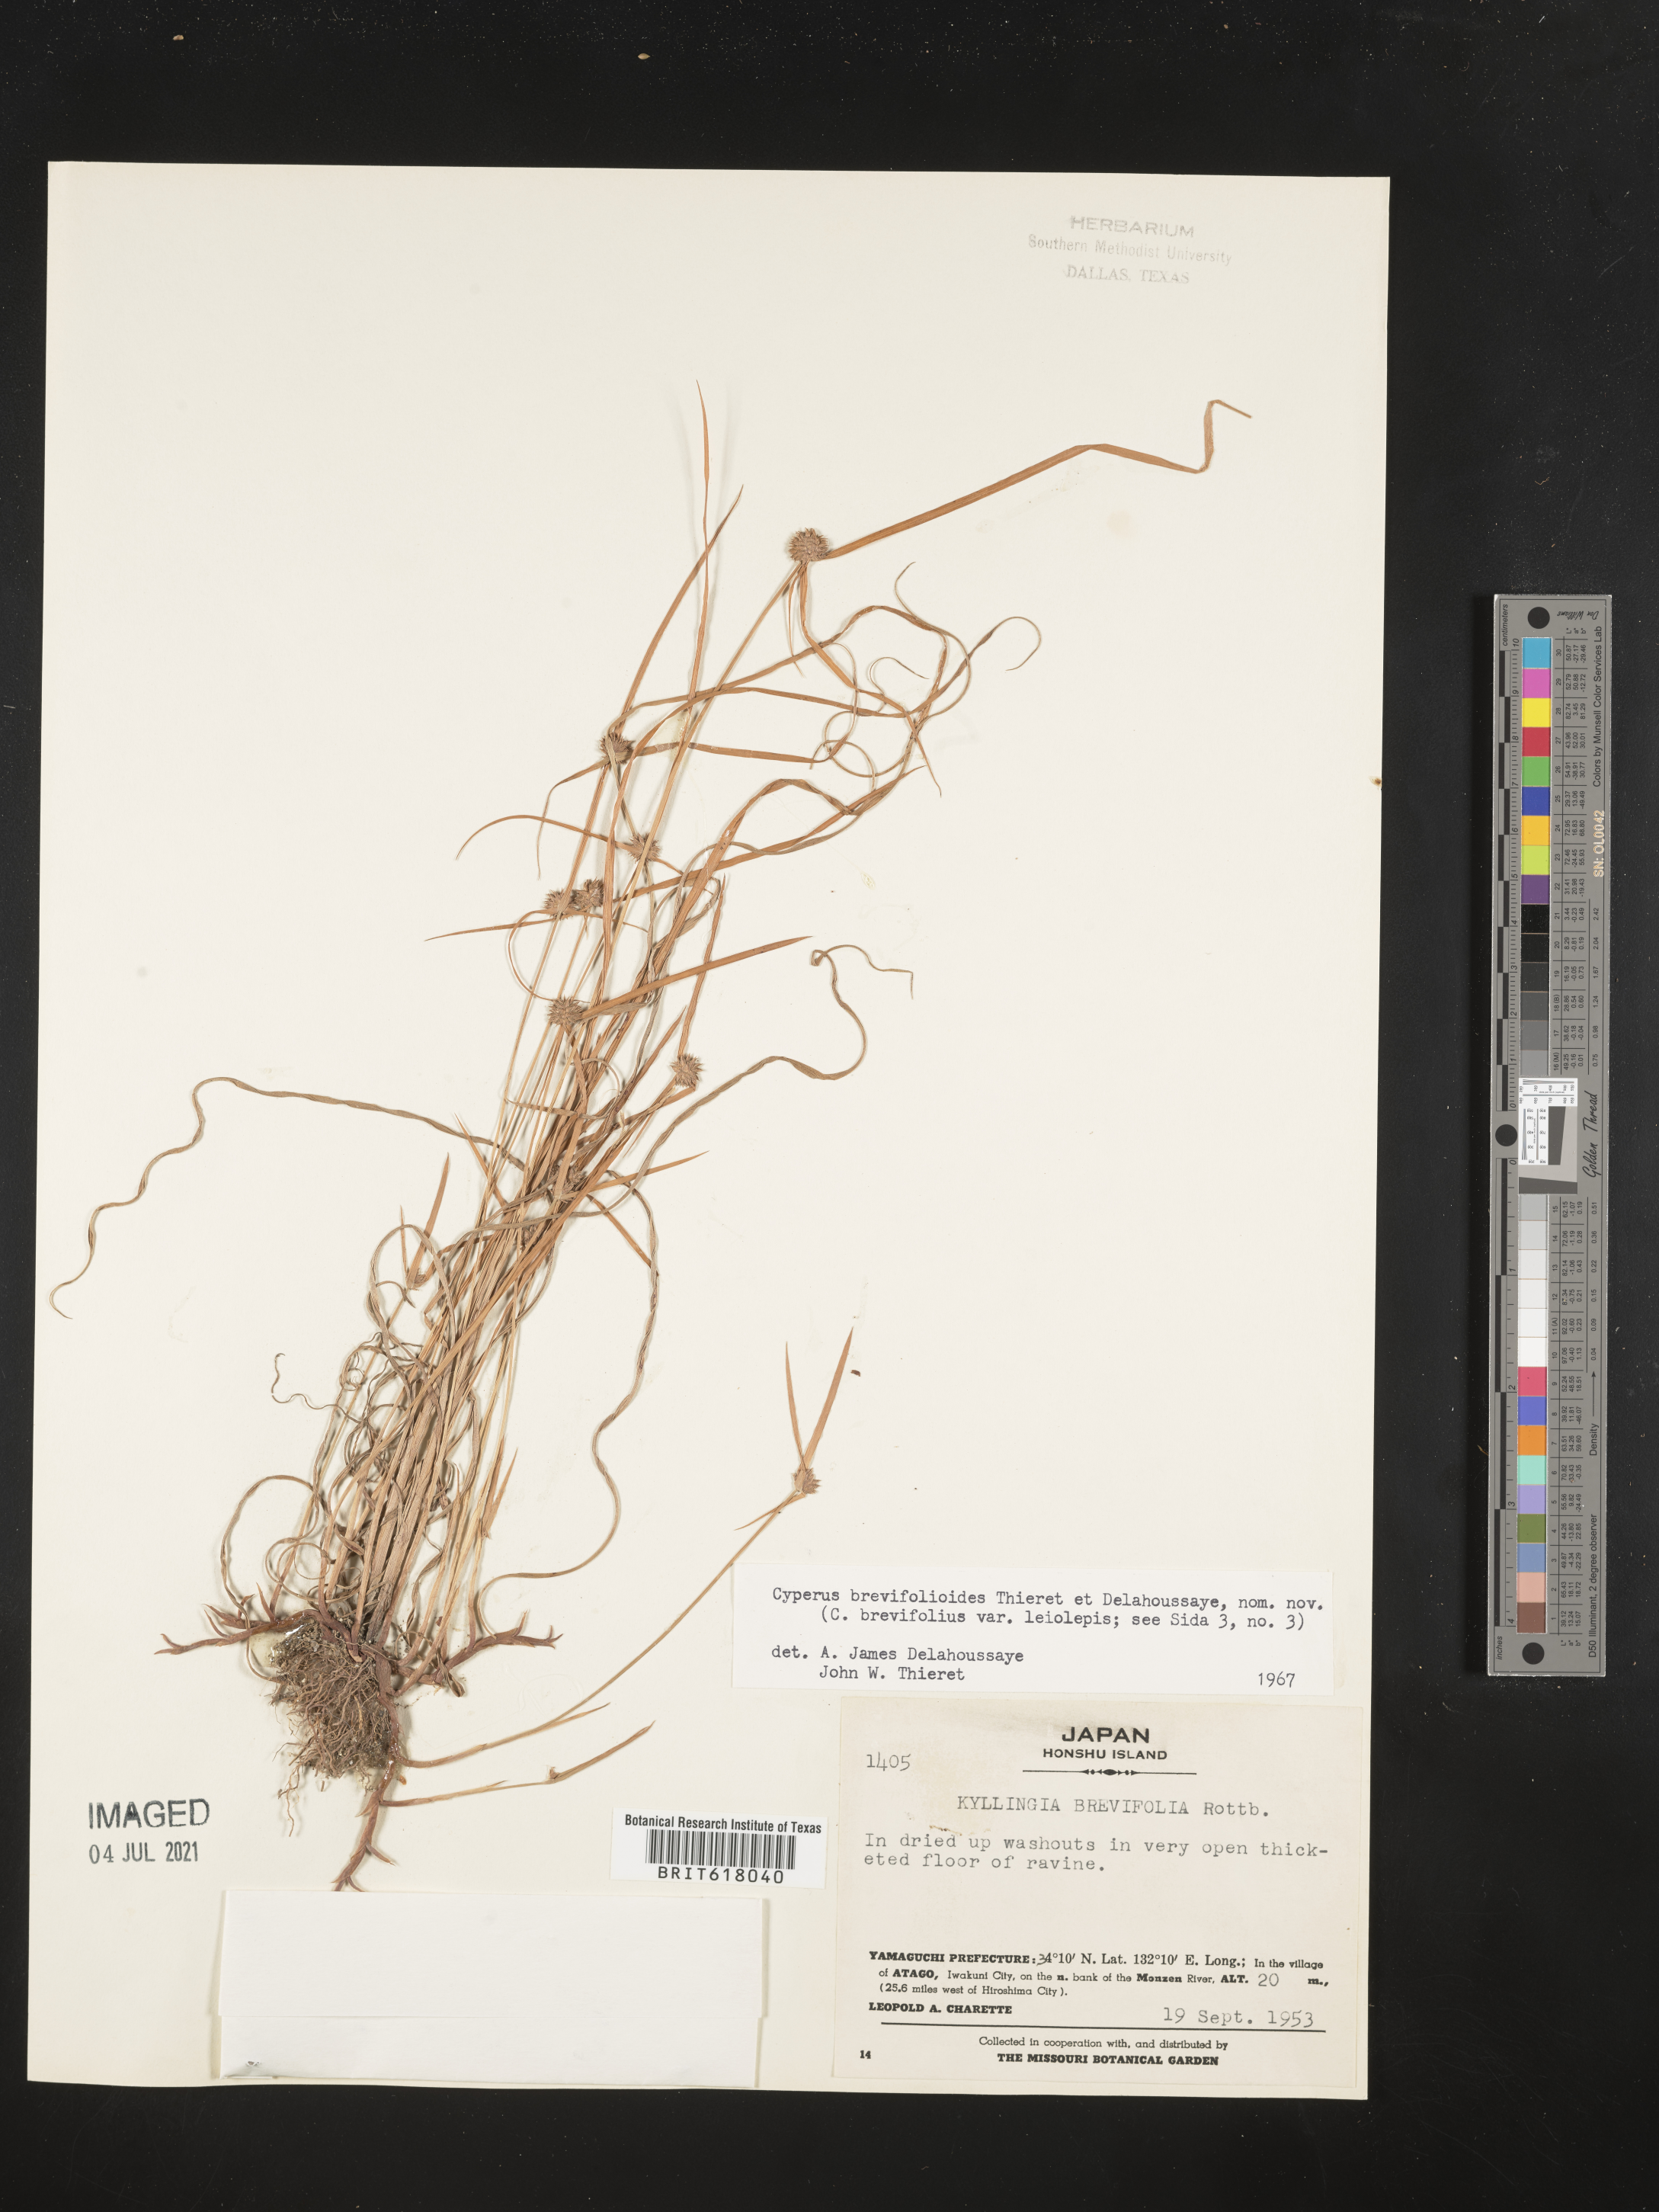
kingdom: Plantae
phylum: Tracheophyta
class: Liliopsida
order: Poales
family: Cyperaceae
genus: Cyperus
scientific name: Cyperus brevifolioides
